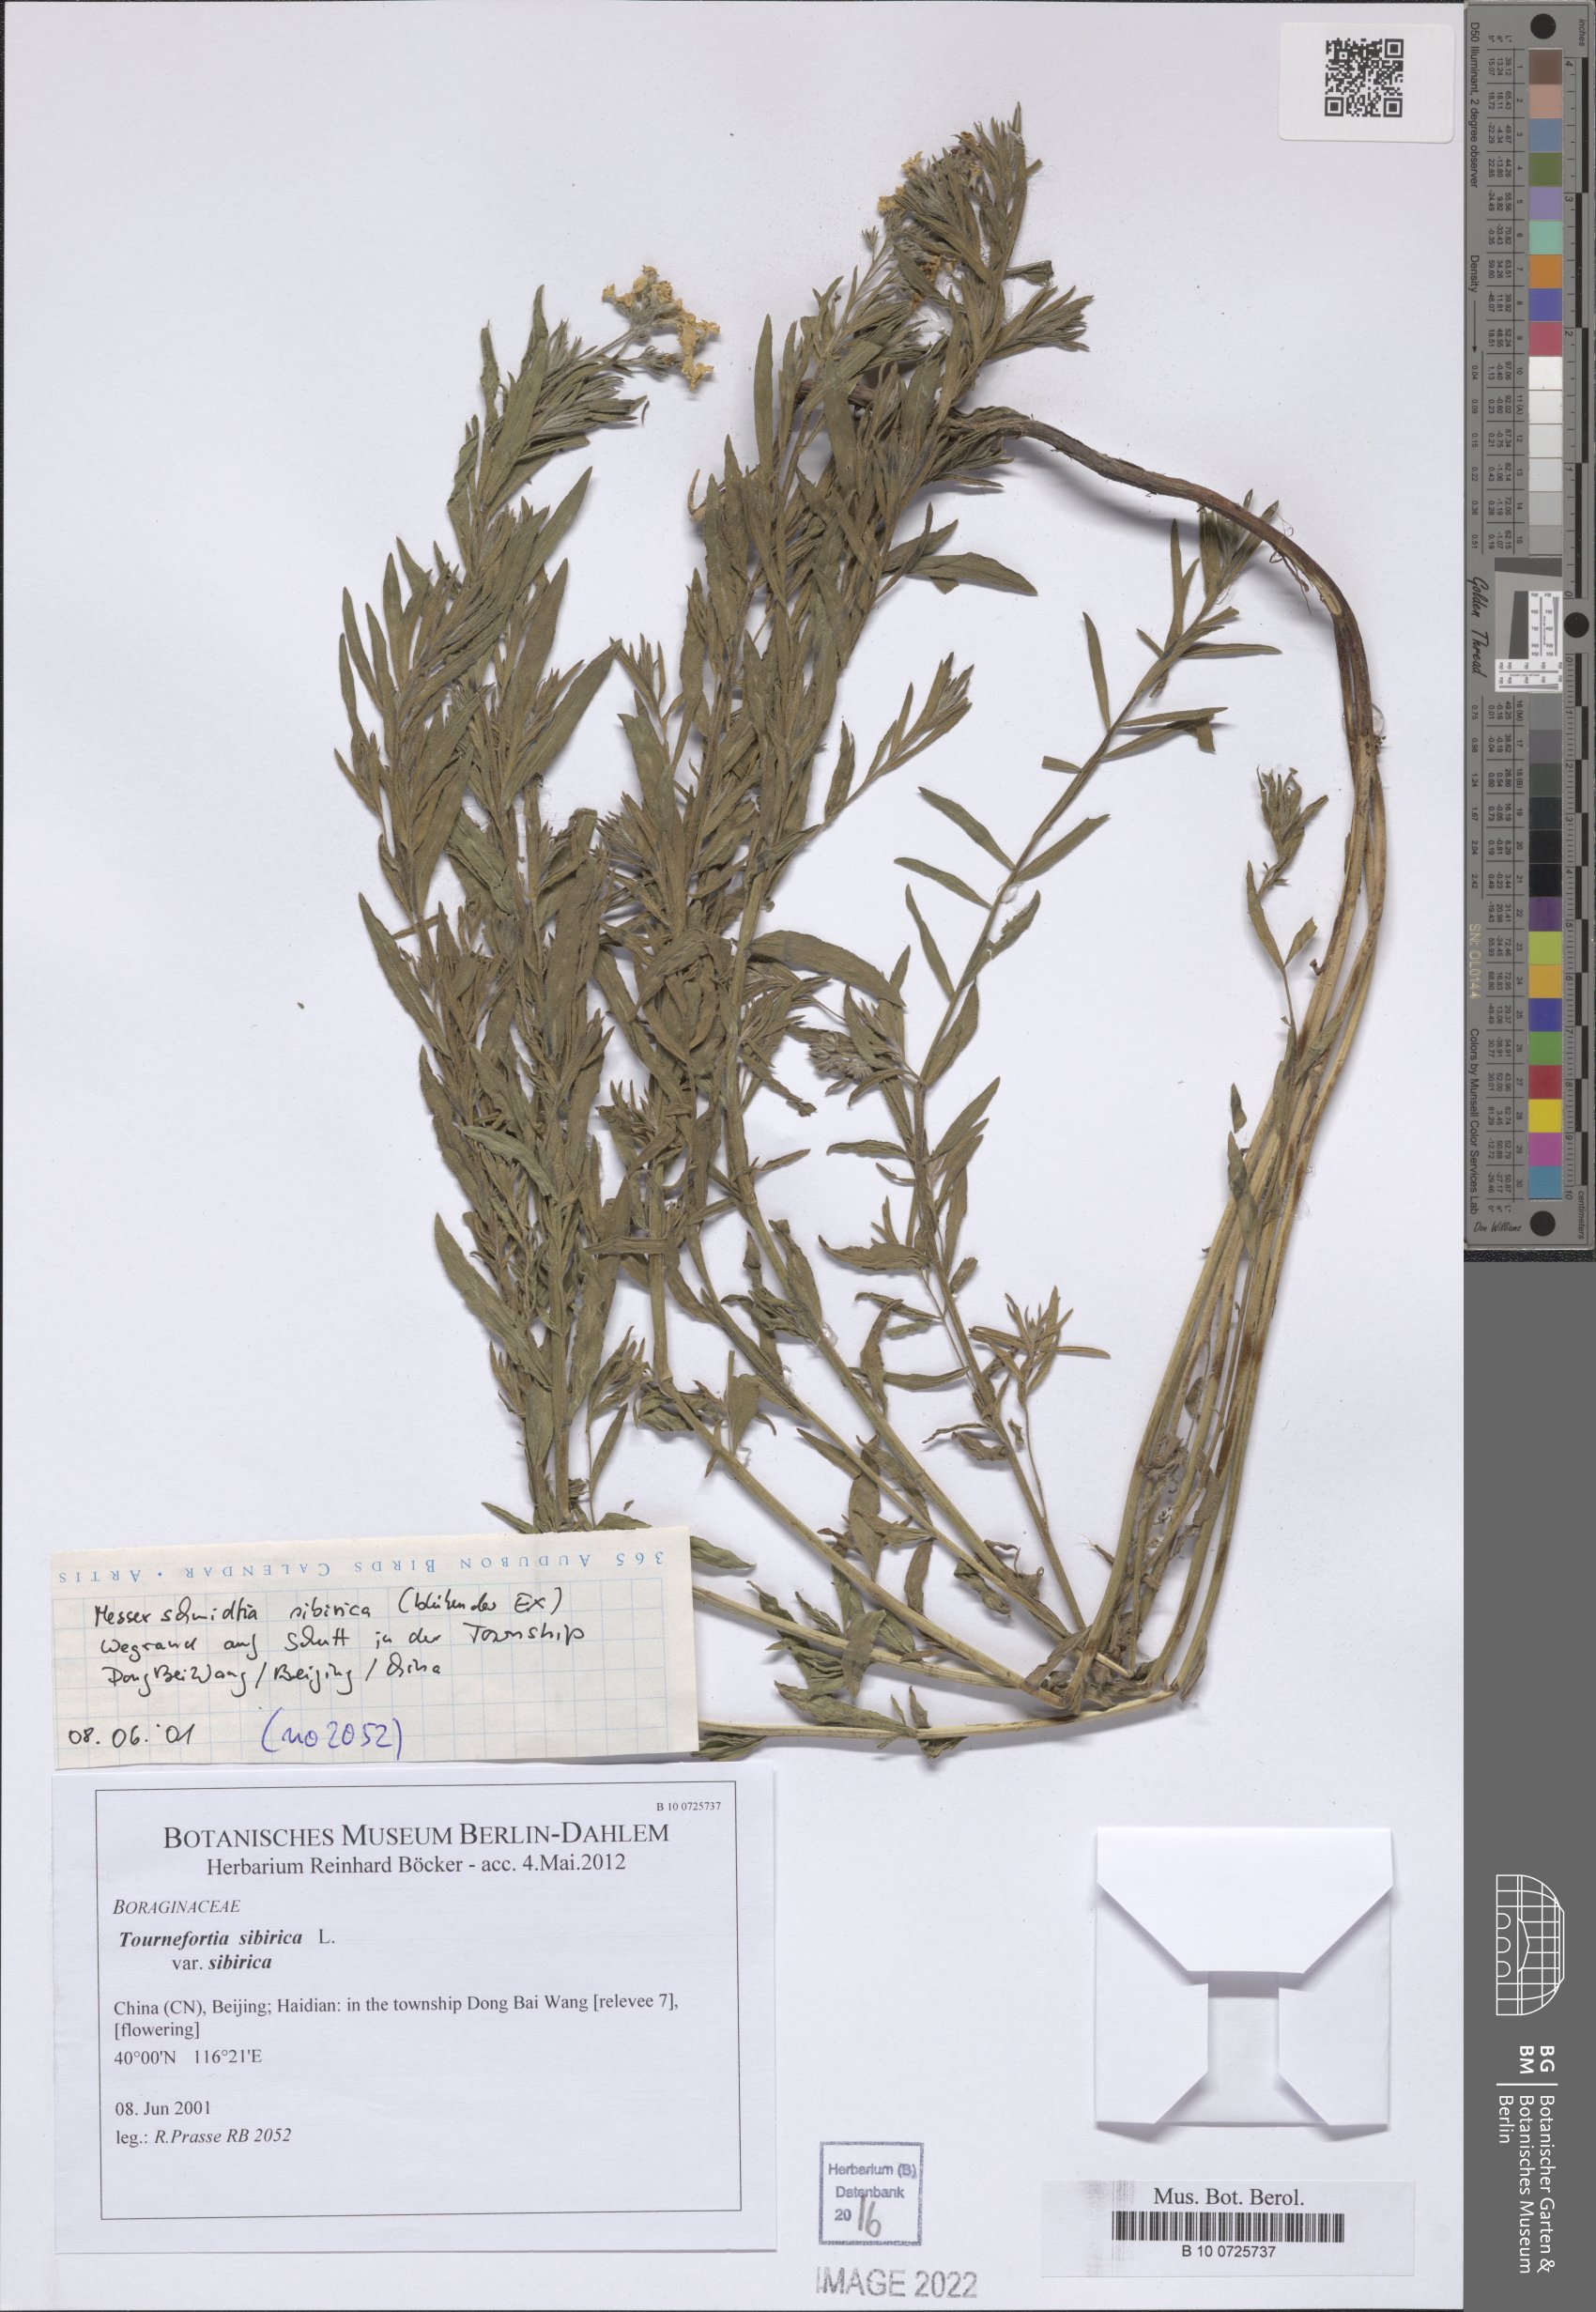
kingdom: Plantae
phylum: Tracheophyta
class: Magnoliopsida
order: Boraginales
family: Heliotropiaceae
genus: Tournefortia
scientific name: Tournefortia sibirica
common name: Siberian sea rosemary
